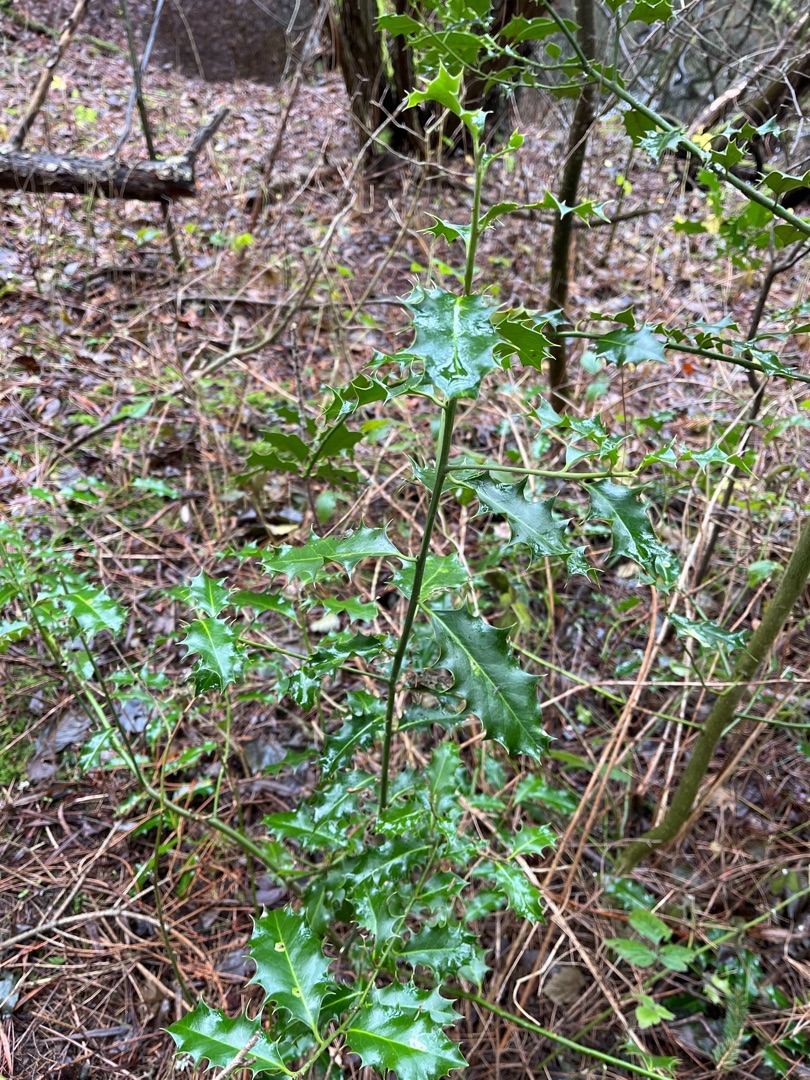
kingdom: Plantae
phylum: Tracheophyta
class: Magnoliopsida
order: Aquifoliales
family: Aquifoliaceae
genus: Ilex
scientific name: Ilex aquifolium
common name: Kristtorn
